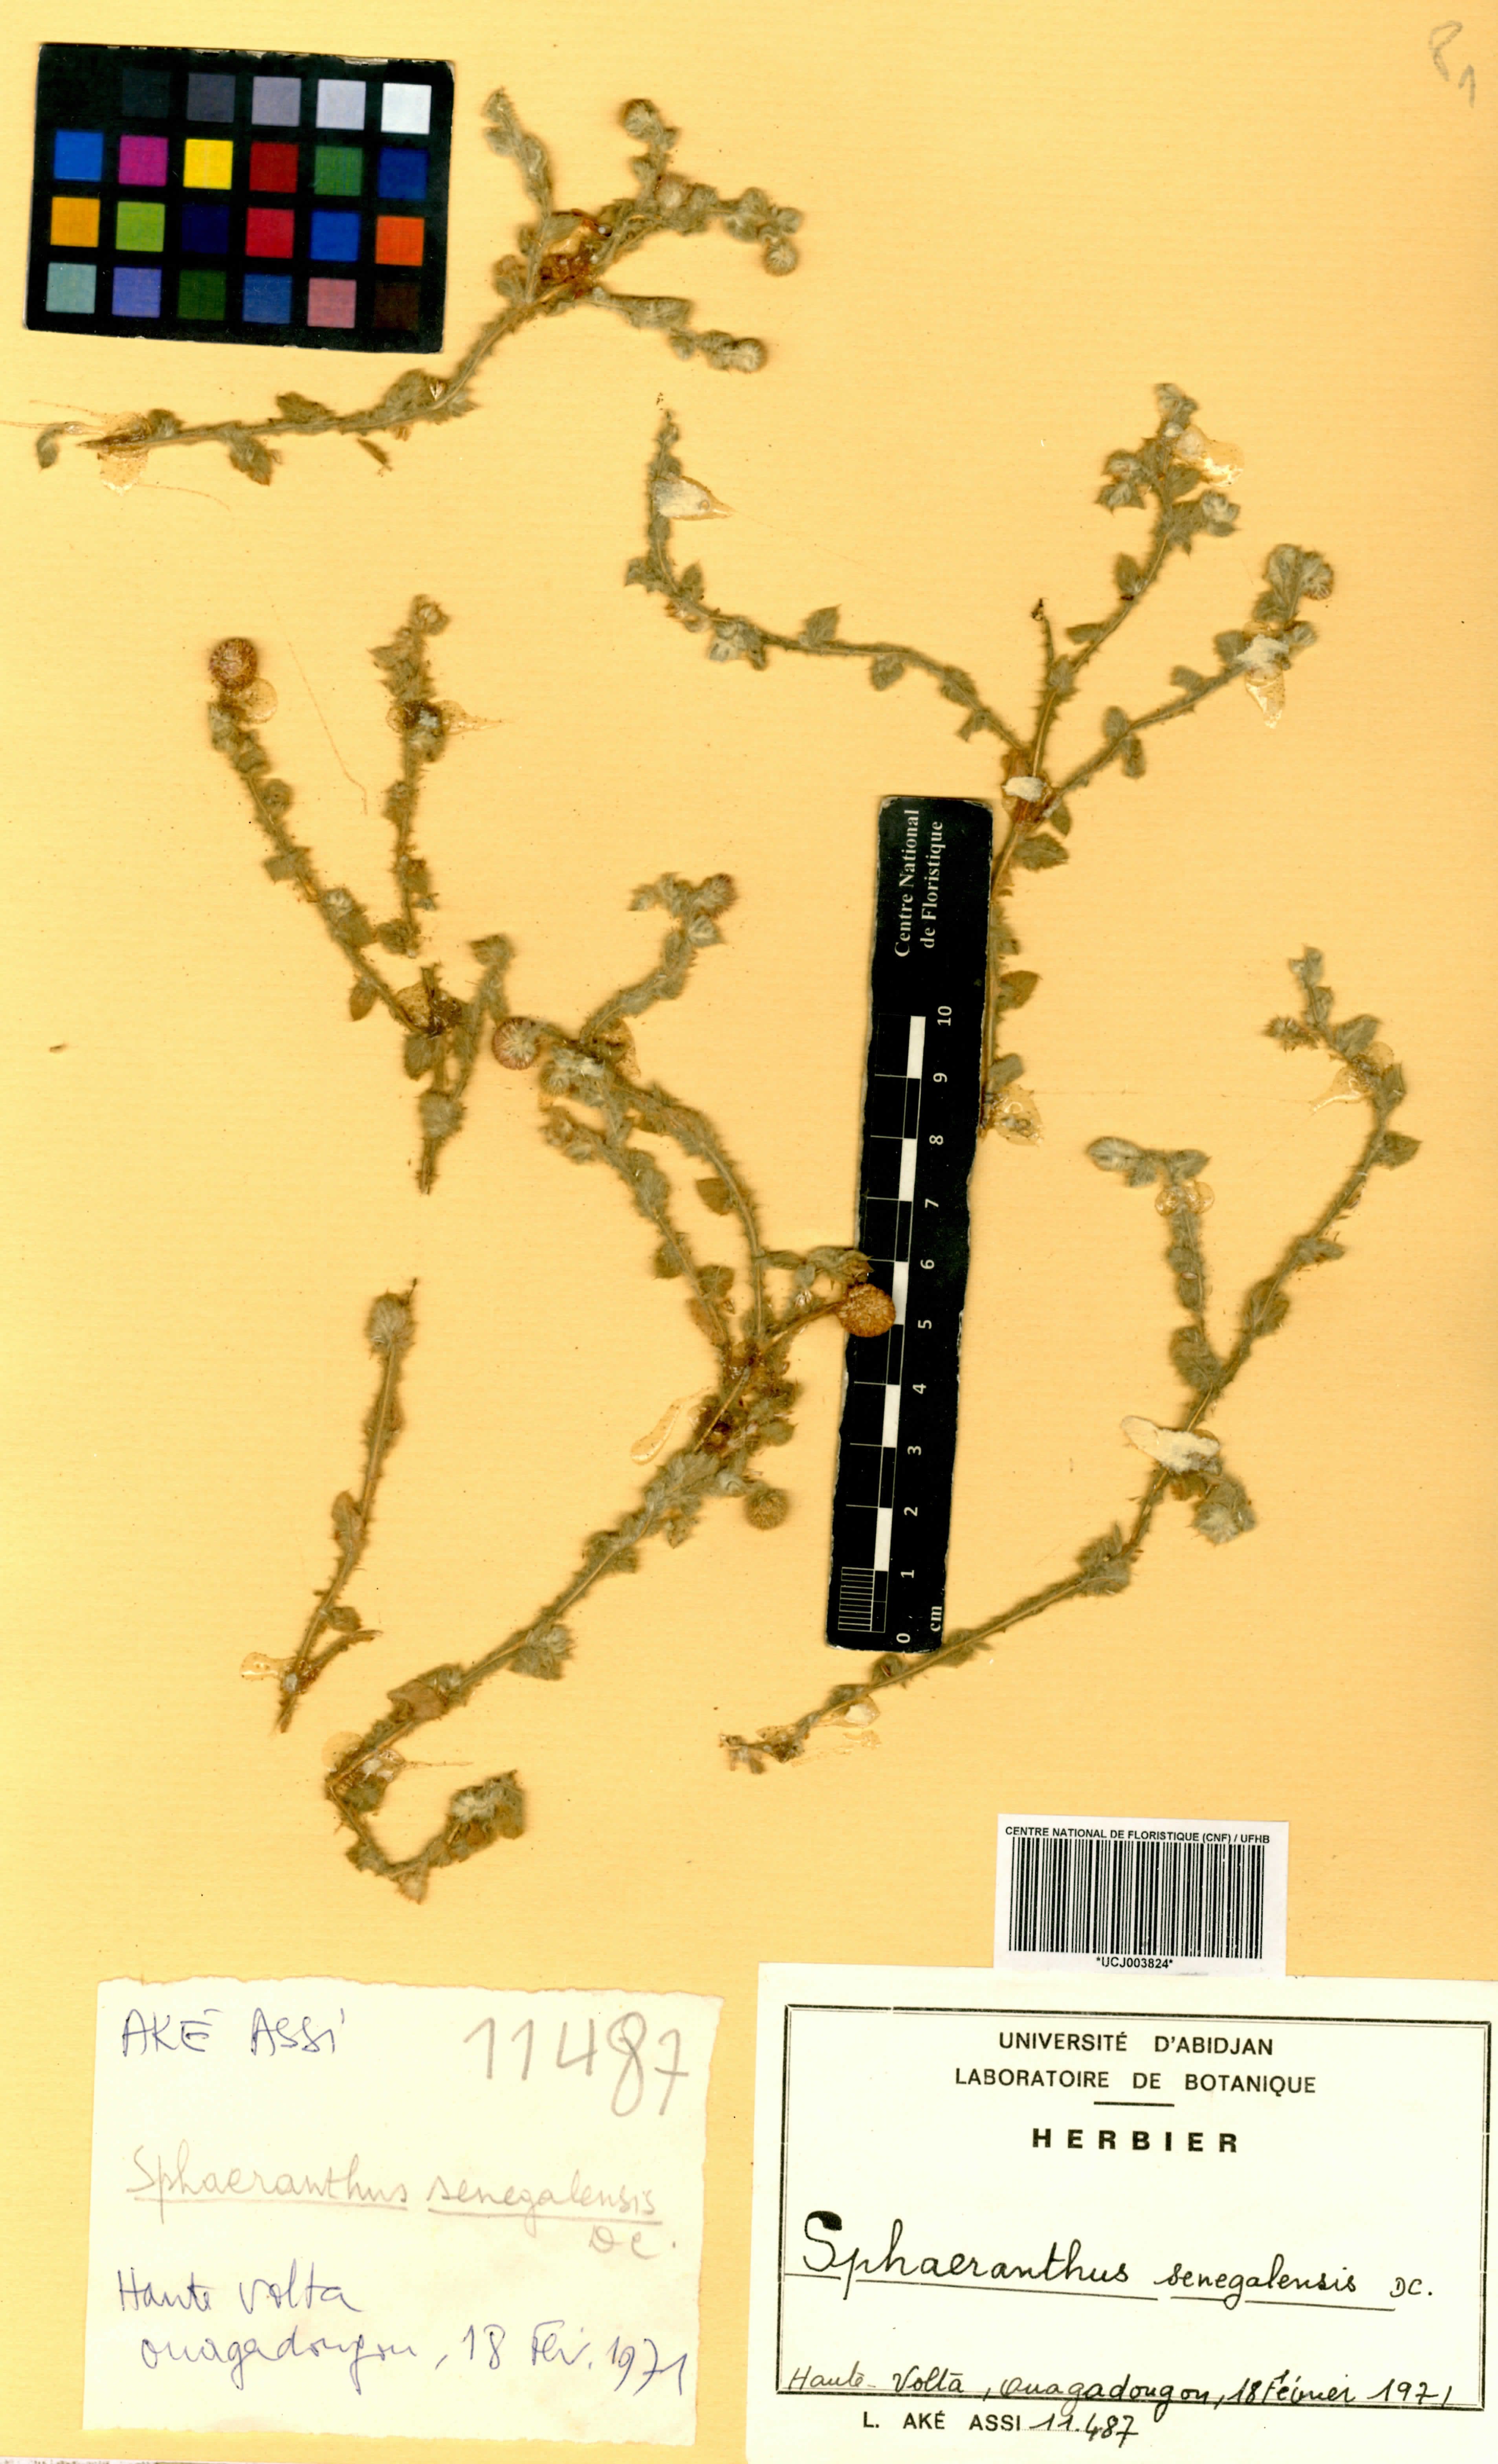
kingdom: Plantae
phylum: Tracheophyta
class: Magnoliopsida
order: Asterales
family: Asteraceae
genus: Sphaeranthus
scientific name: Sphaeranthus senegalensis
